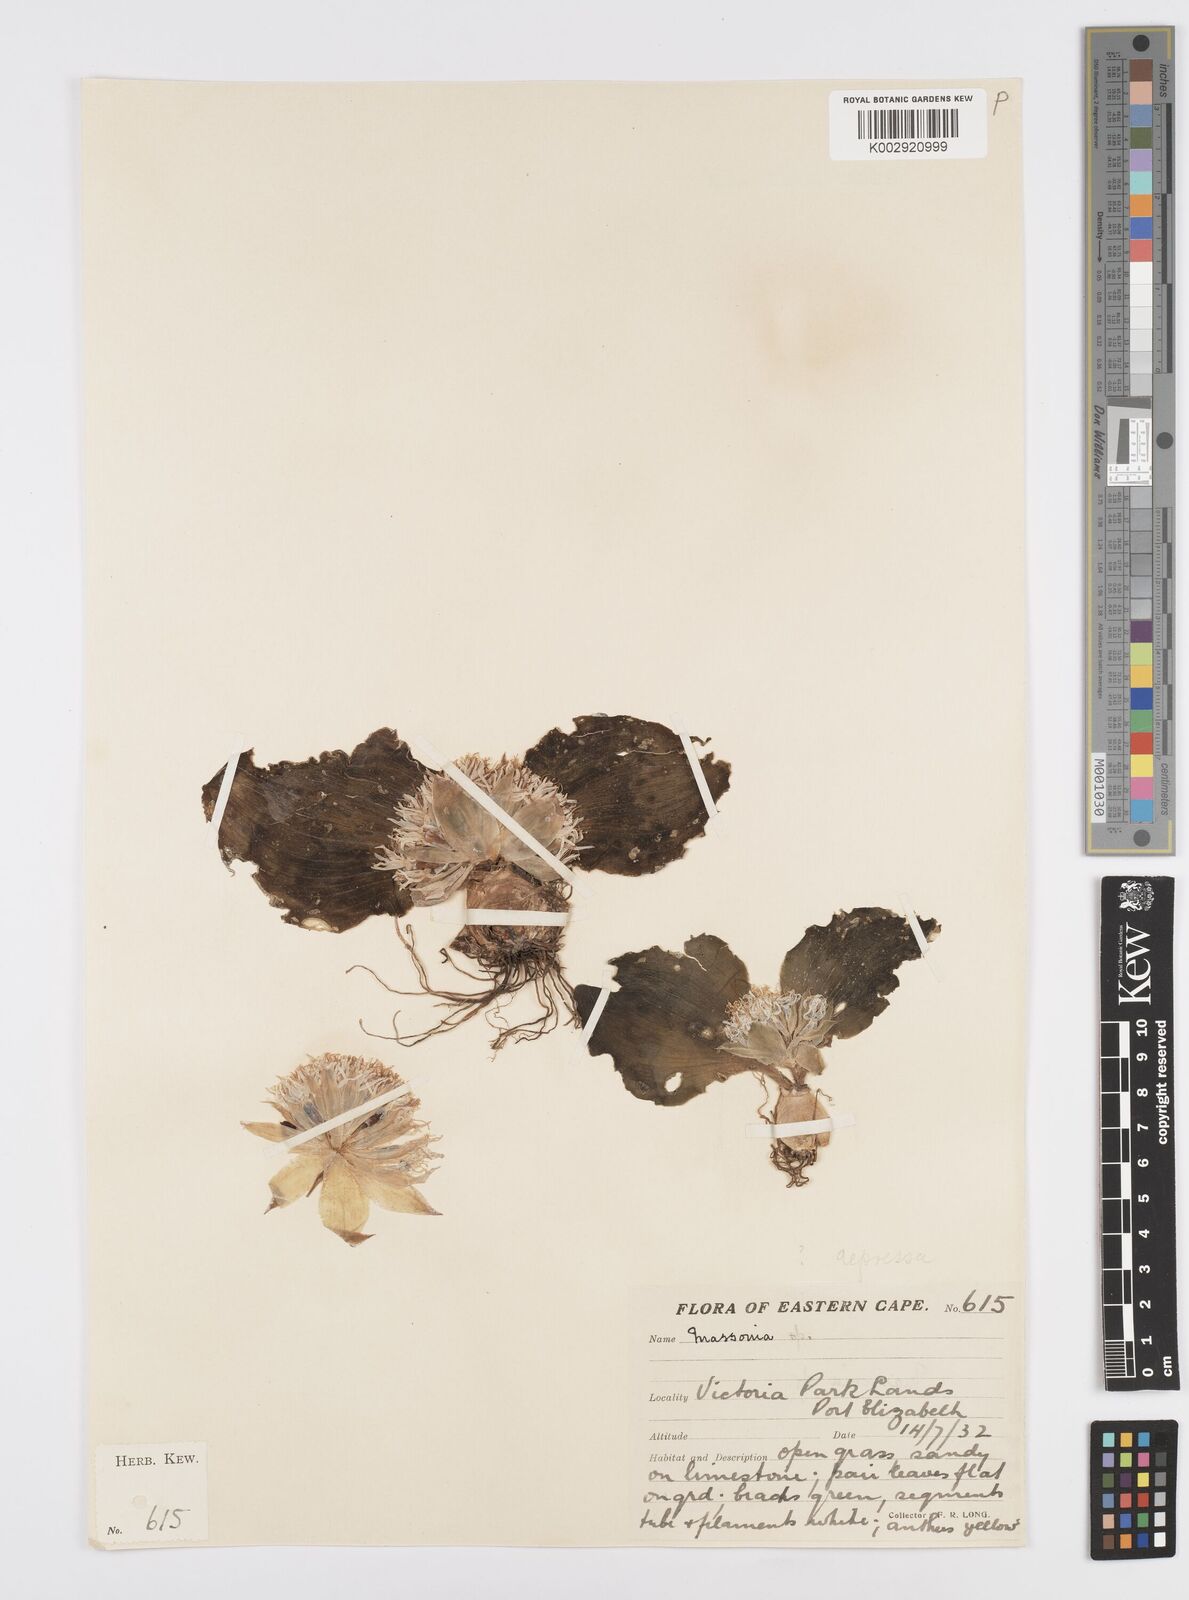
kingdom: Plantae
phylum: Tracheophyta
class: Liliopsida
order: Asparagales
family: Asparagaceae
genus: Massonia
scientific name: Massonia
